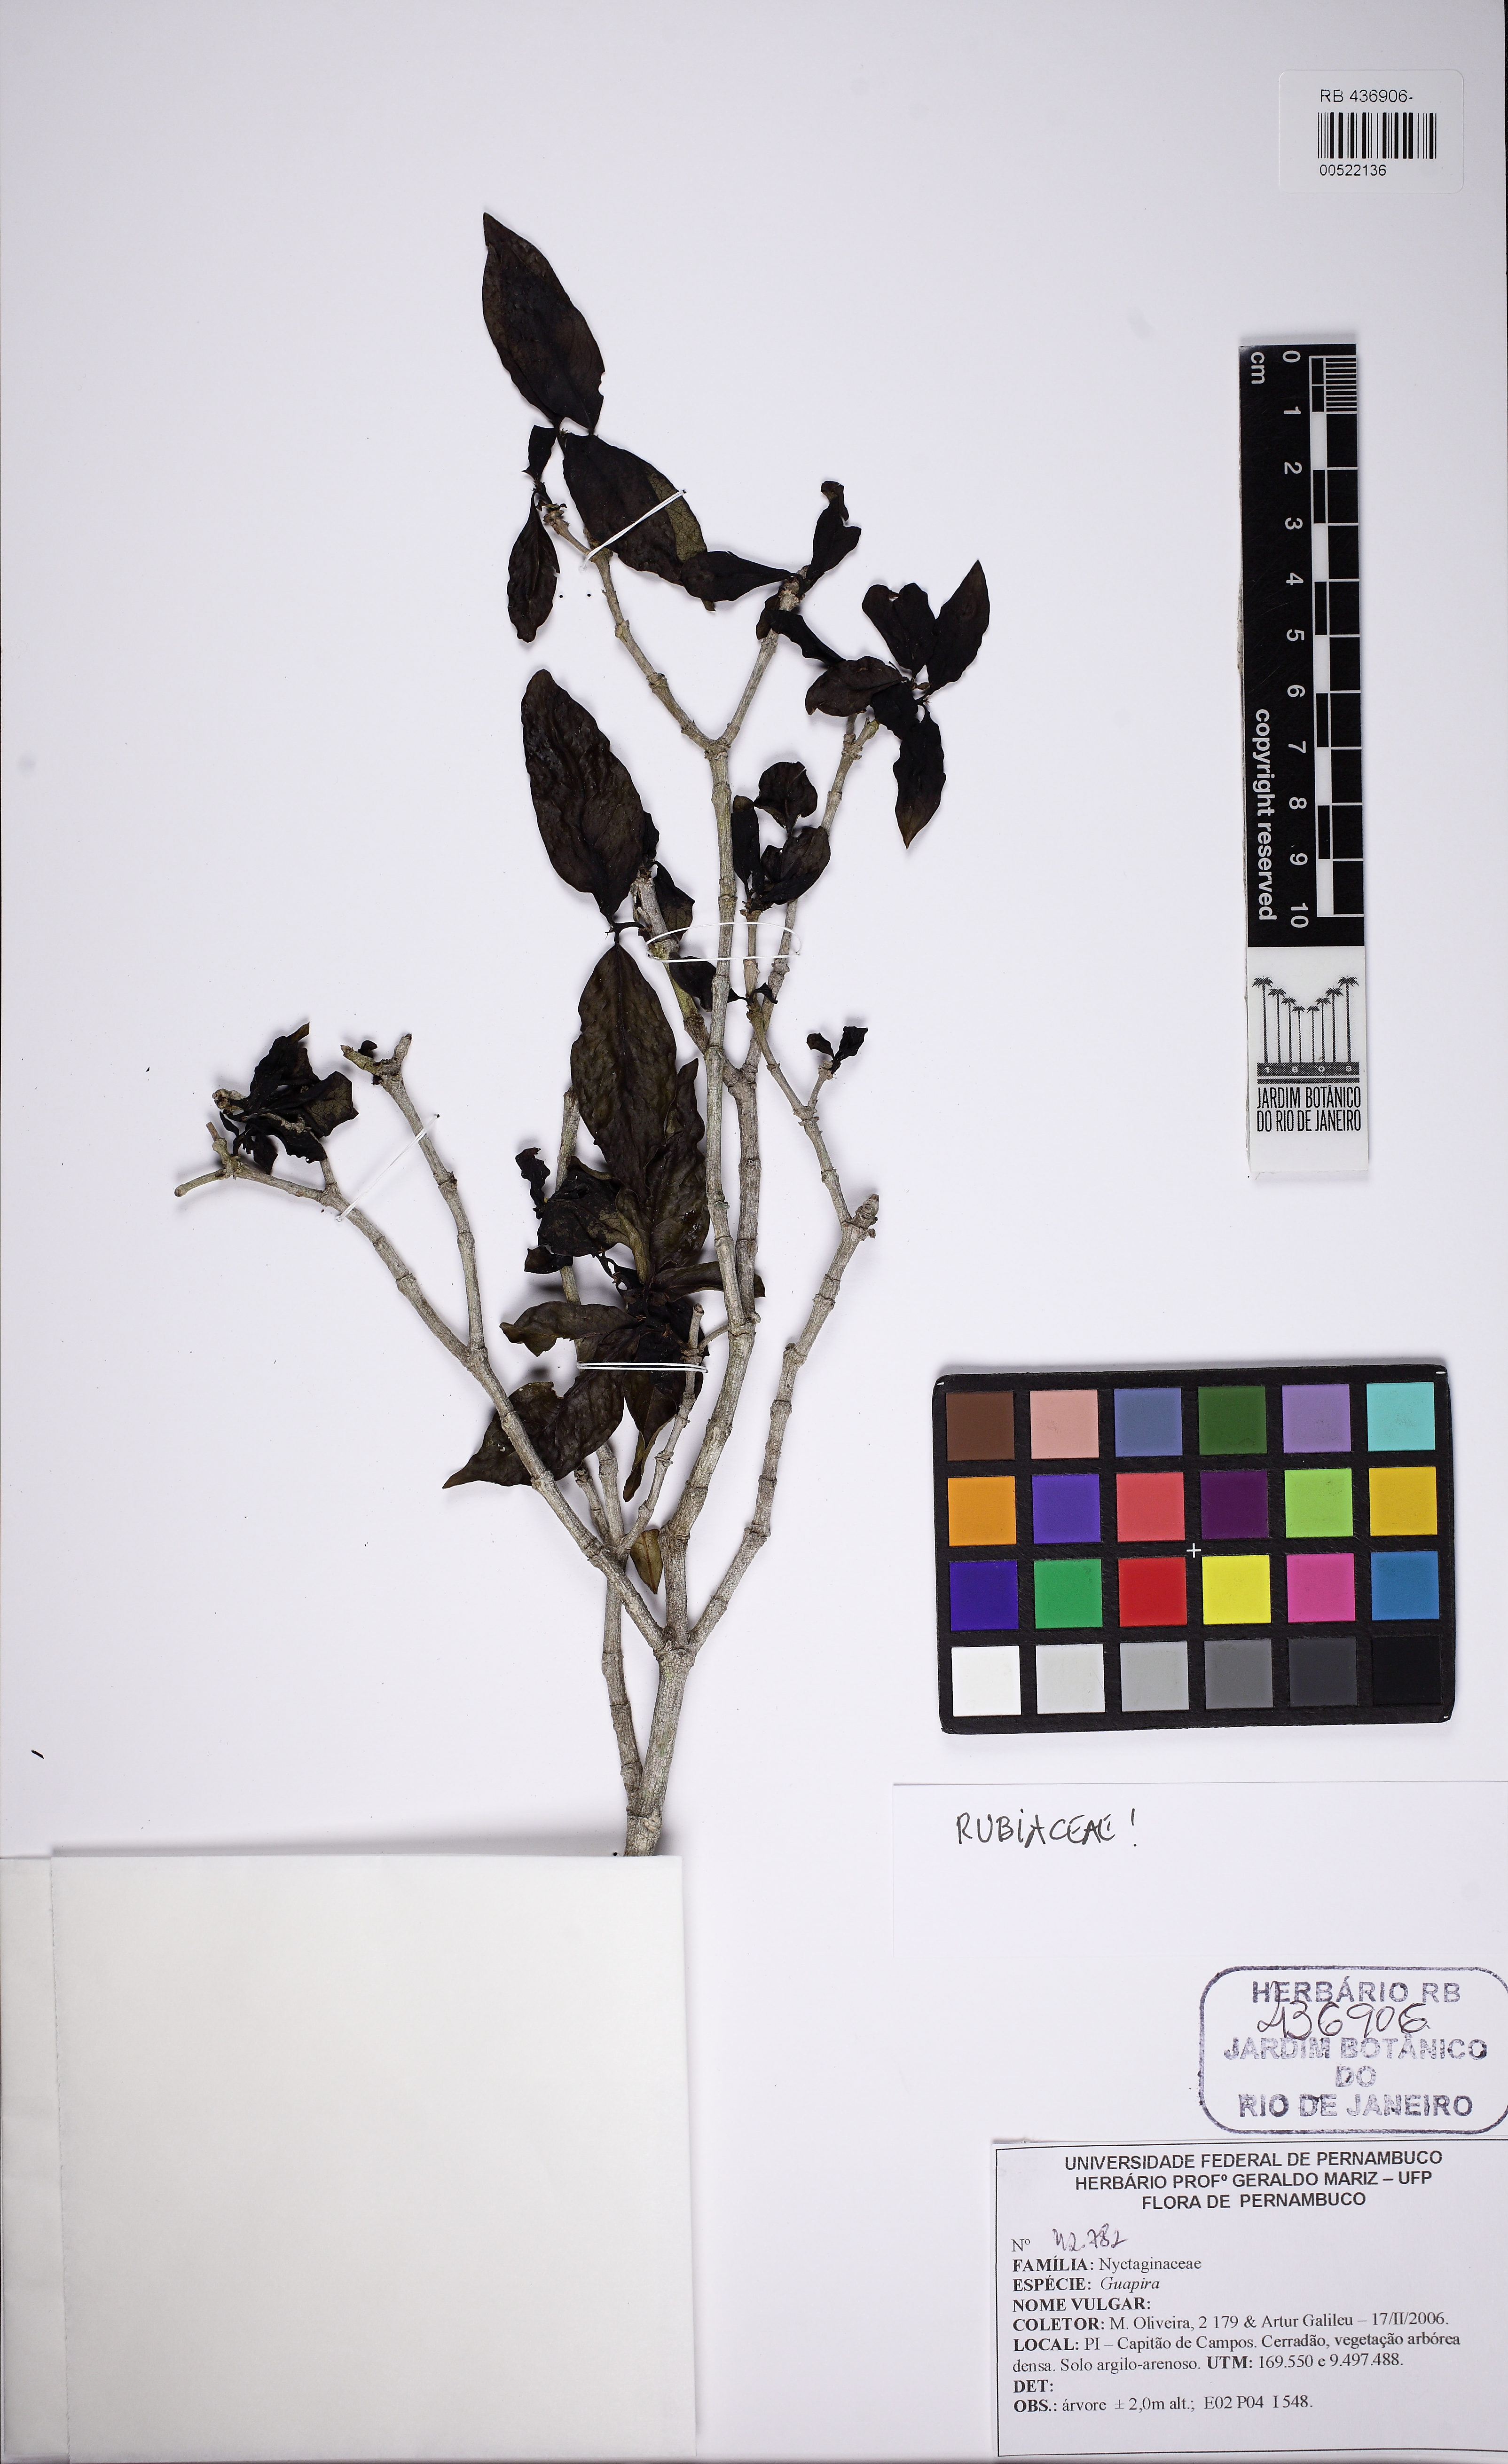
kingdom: Plantae
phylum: Tracheophyta
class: Magnoliopsida
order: Gentianales
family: Rubiaceae
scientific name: Rubiaceae
